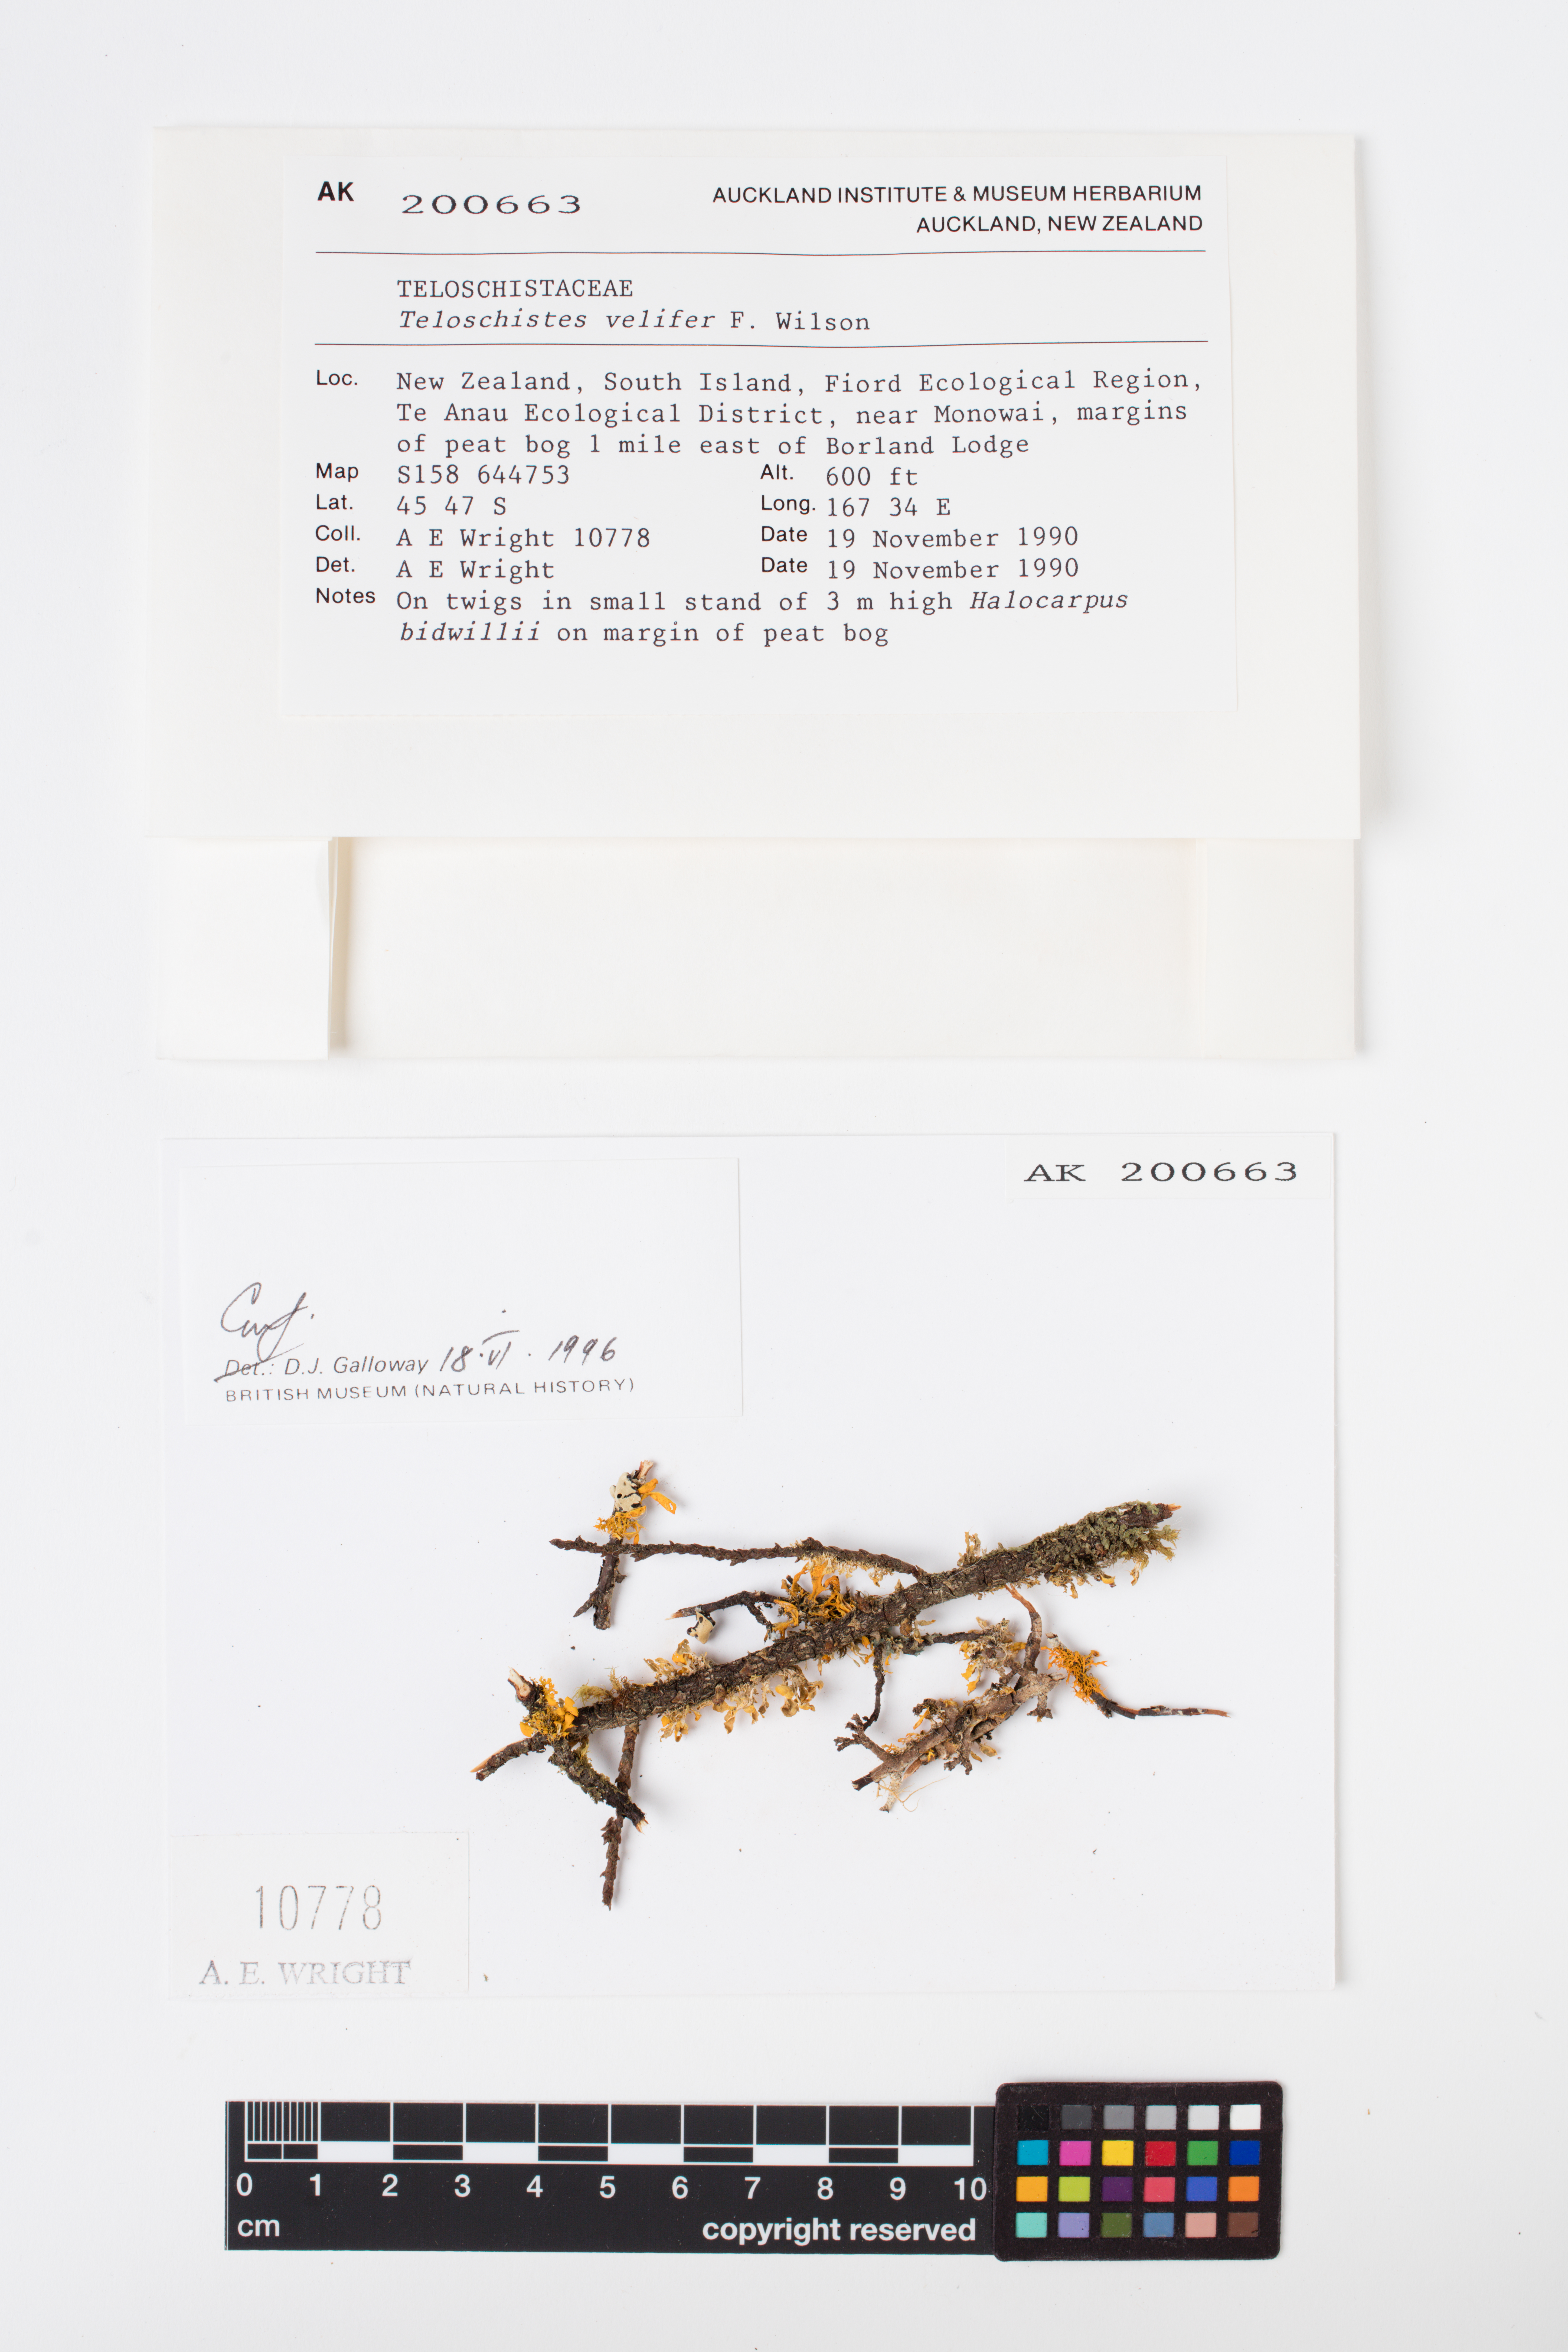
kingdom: Fungi
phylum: Ascomycota
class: Lecanoromycetes
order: Teloschistales
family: Teloschistaceae
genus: Teloschistes
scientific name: Teloschistes velifer
